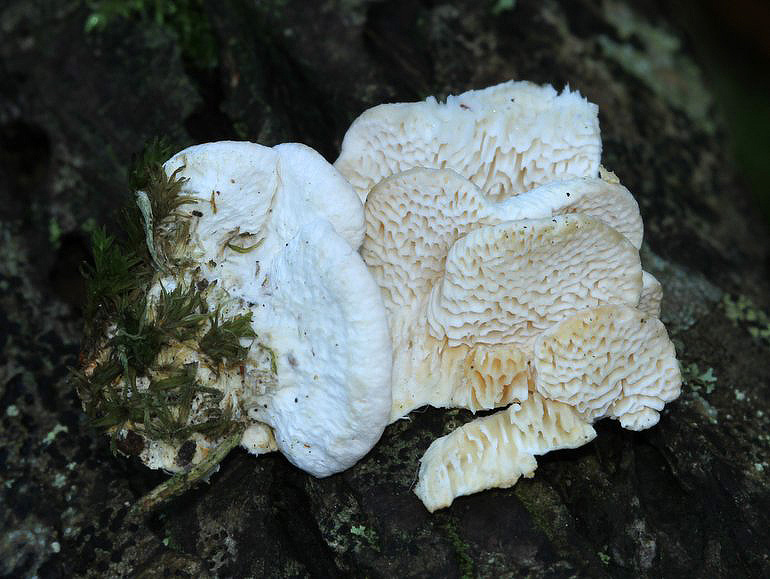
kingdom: Fungi
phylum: Basidiomycota
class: Agaricomycetes
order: Polyporales
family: Polyporaceae
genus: Trametes
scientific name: Trametes suaveolens
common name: vellugtende læderporesvamp
